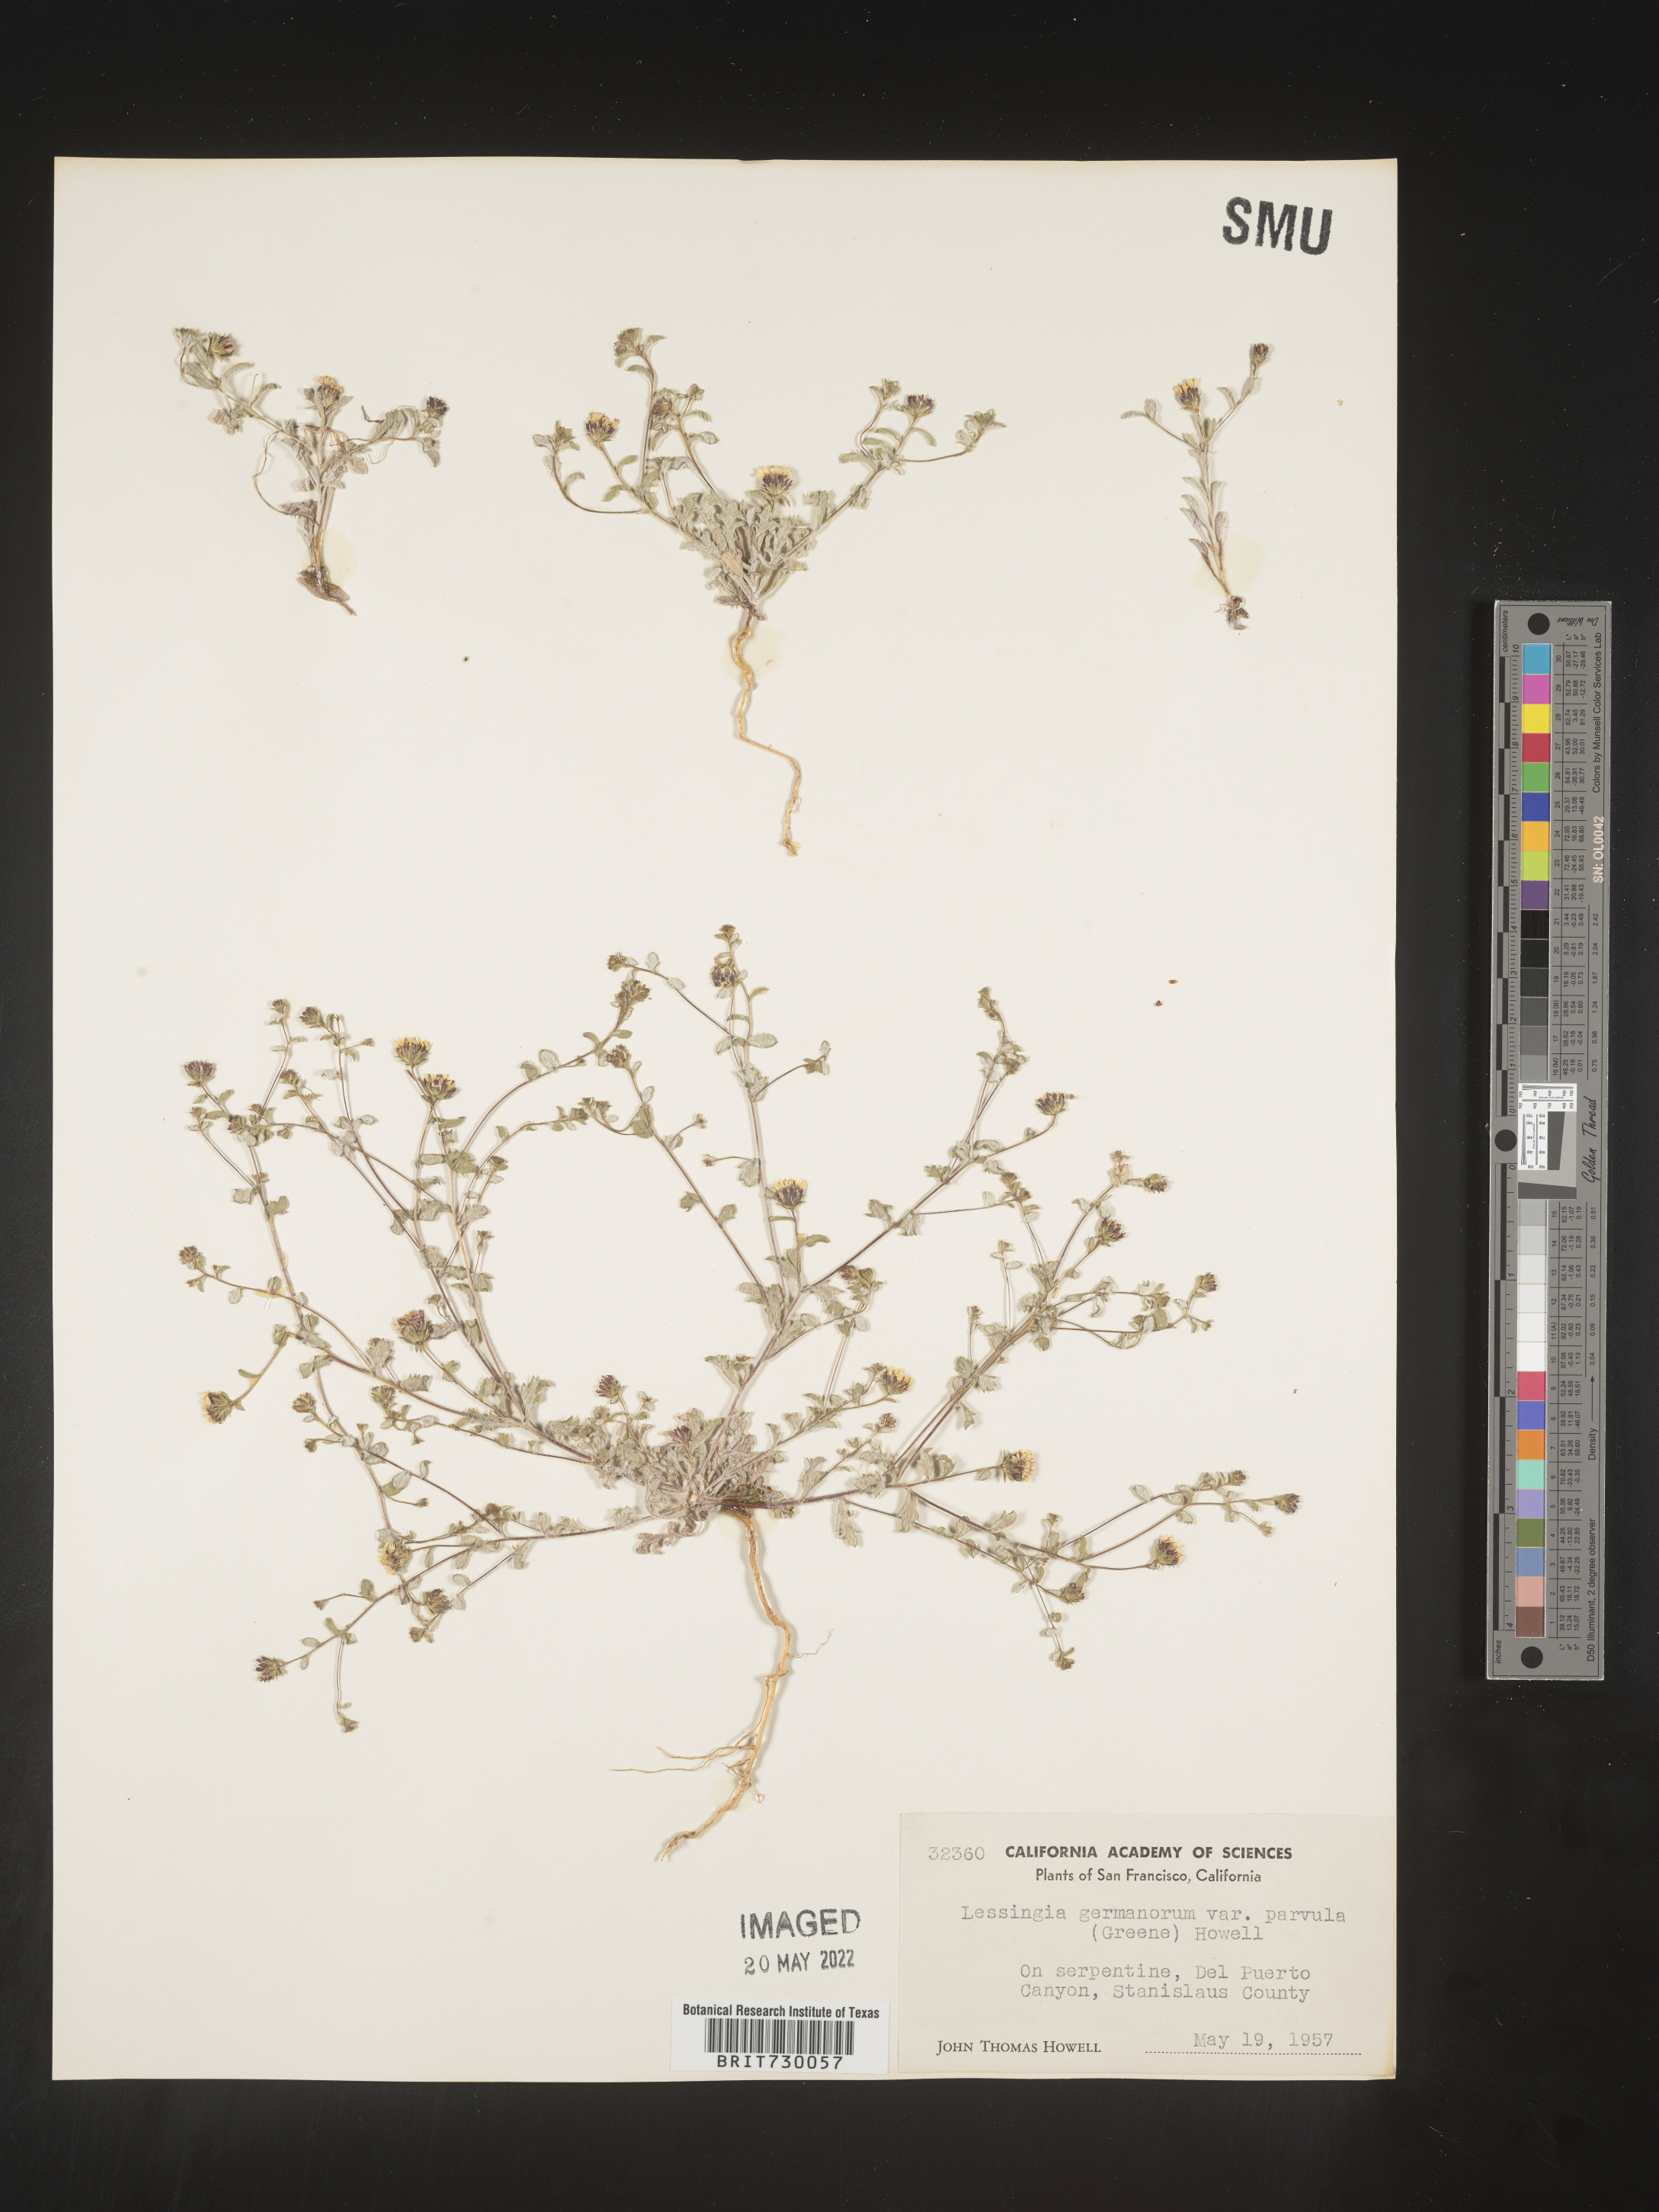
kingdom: Plantae
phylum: Tracheophyta
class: Magnoliopsida
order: Asterales
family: Asteraceae
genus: Lessingia
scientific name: Lessingia
